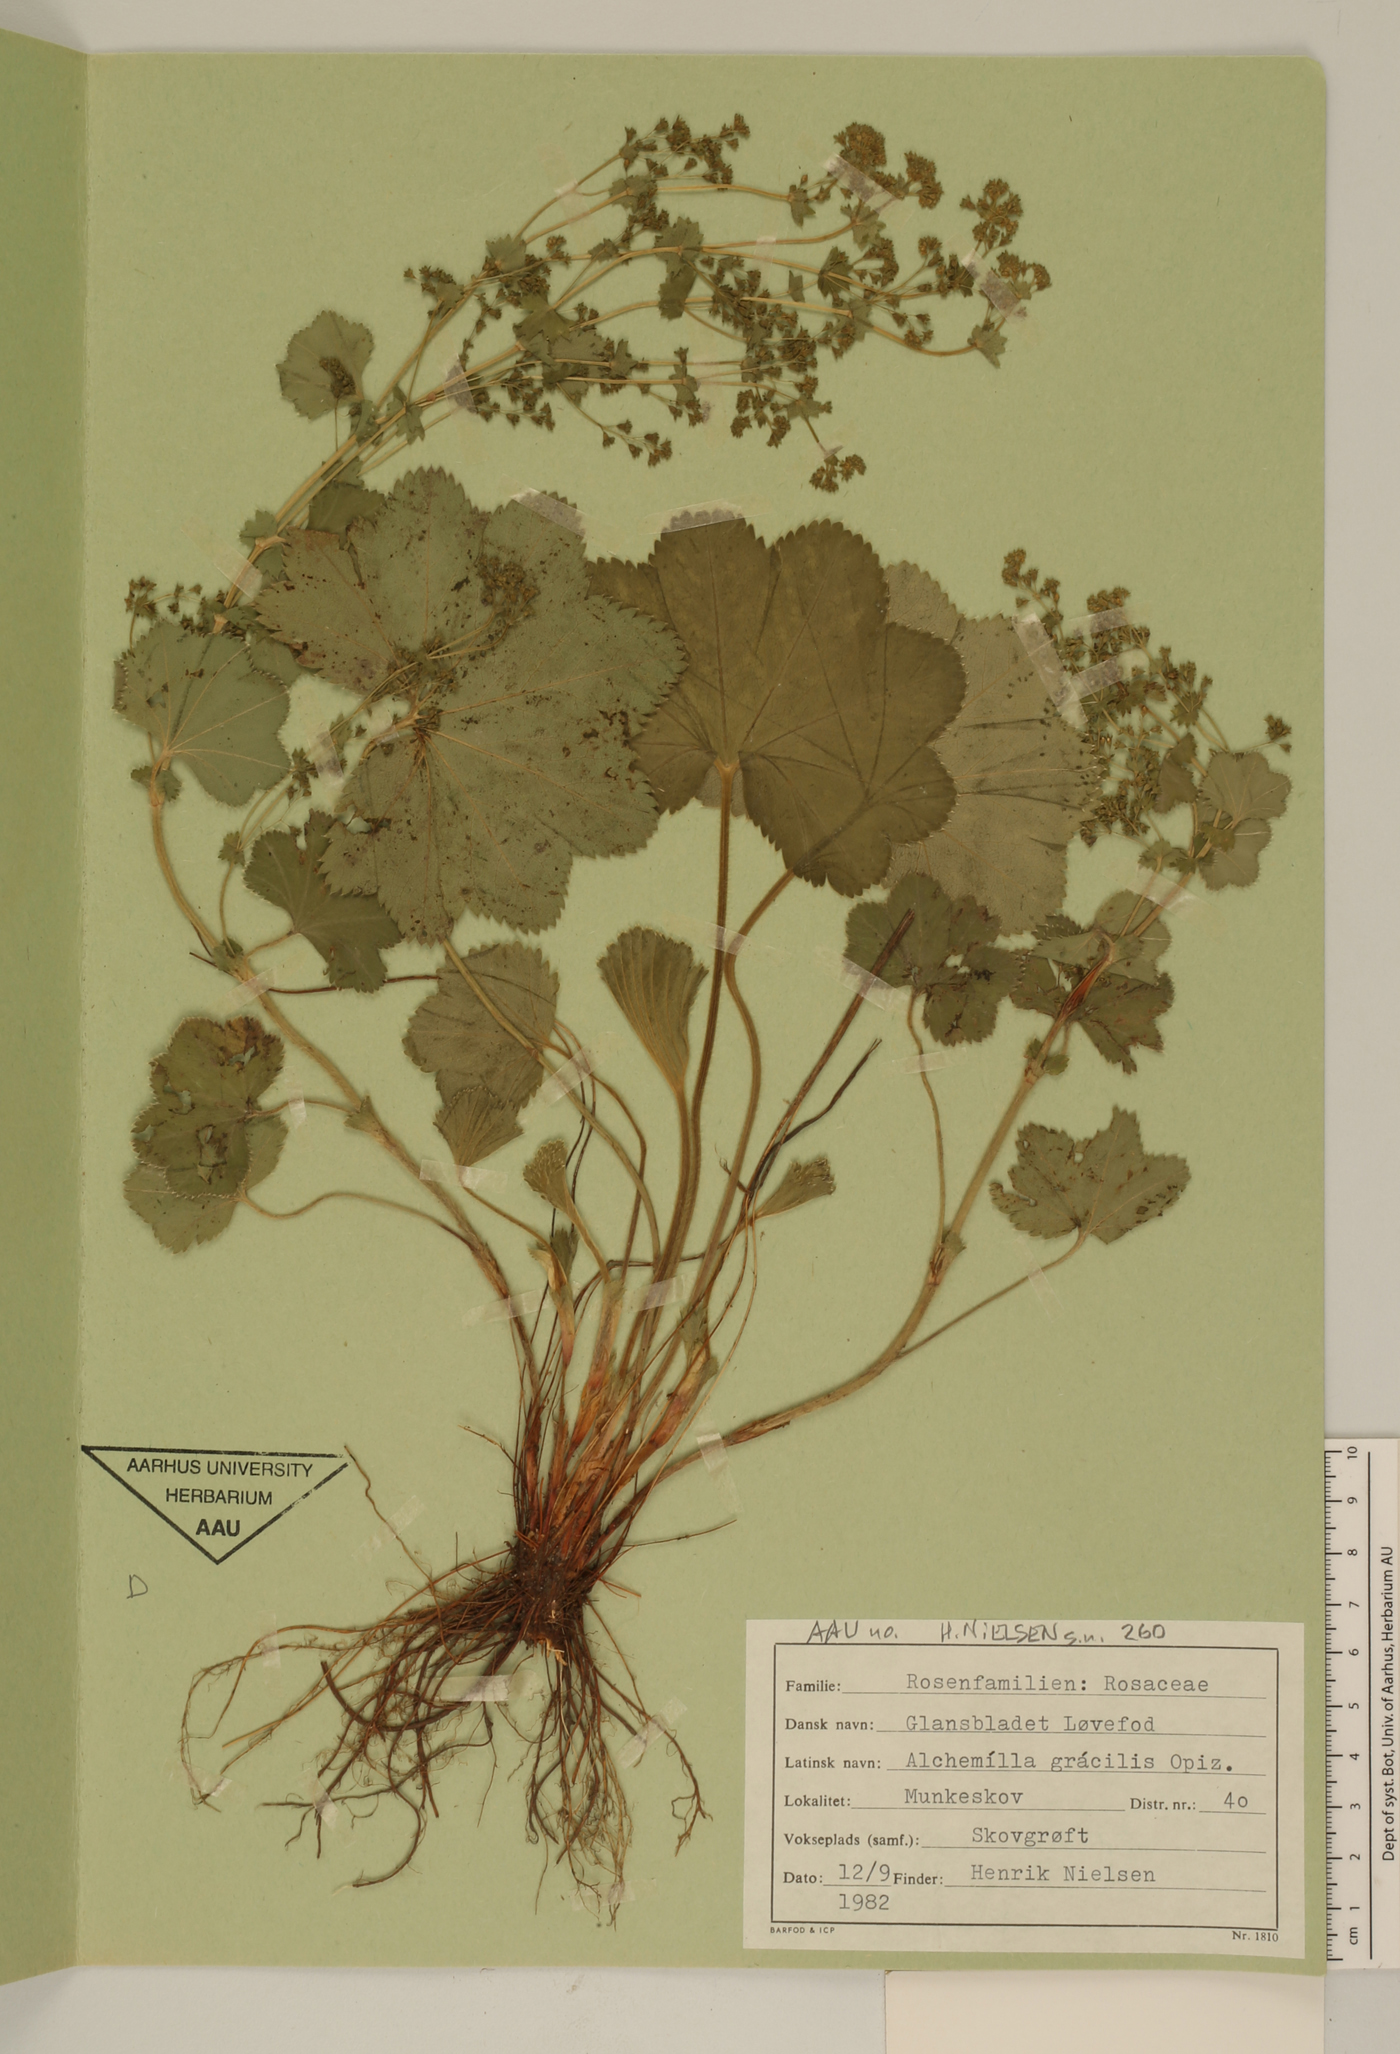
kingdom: Plantae
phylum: Tracheophyta
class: Magnoliopsida
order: Rosales
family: Rosaceae
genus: Alchemilla
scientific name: Alchemilla micans
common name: Gleaming lady's mantle
